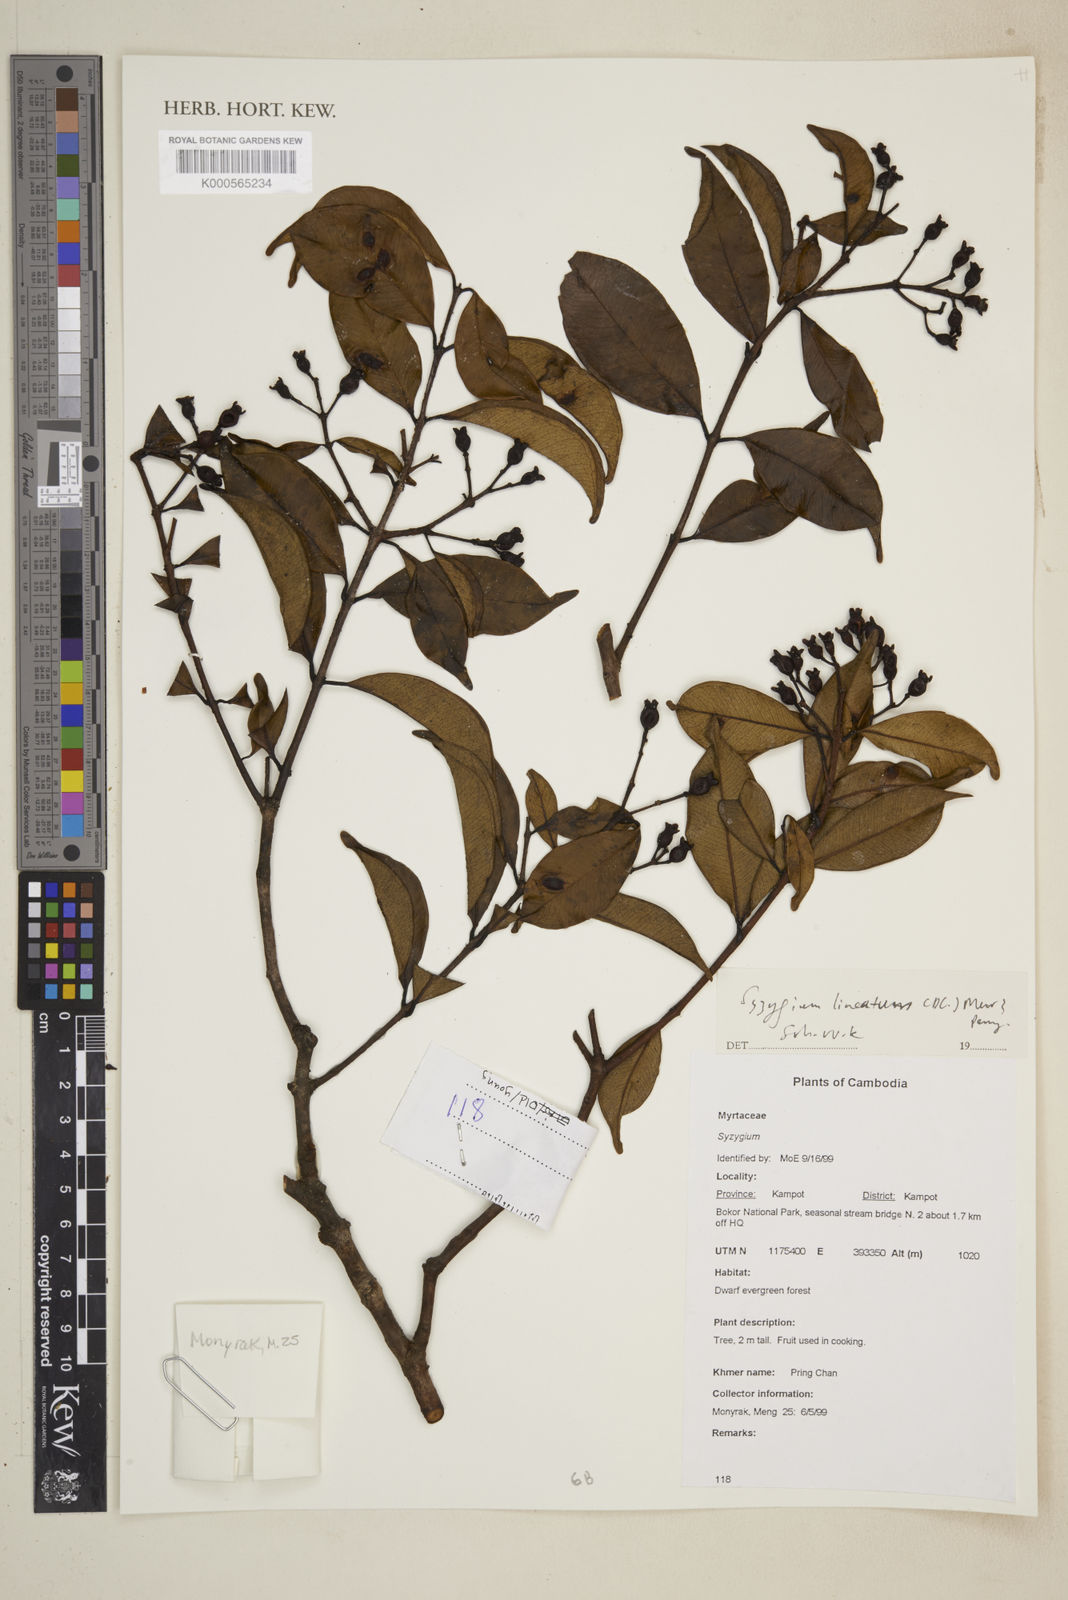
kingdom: Plantae
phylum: Tracheophyta
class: Magnoliopsida
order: Myrtales
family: Myrtaceae
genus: Syzygium
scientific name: Syzygium lineatum
